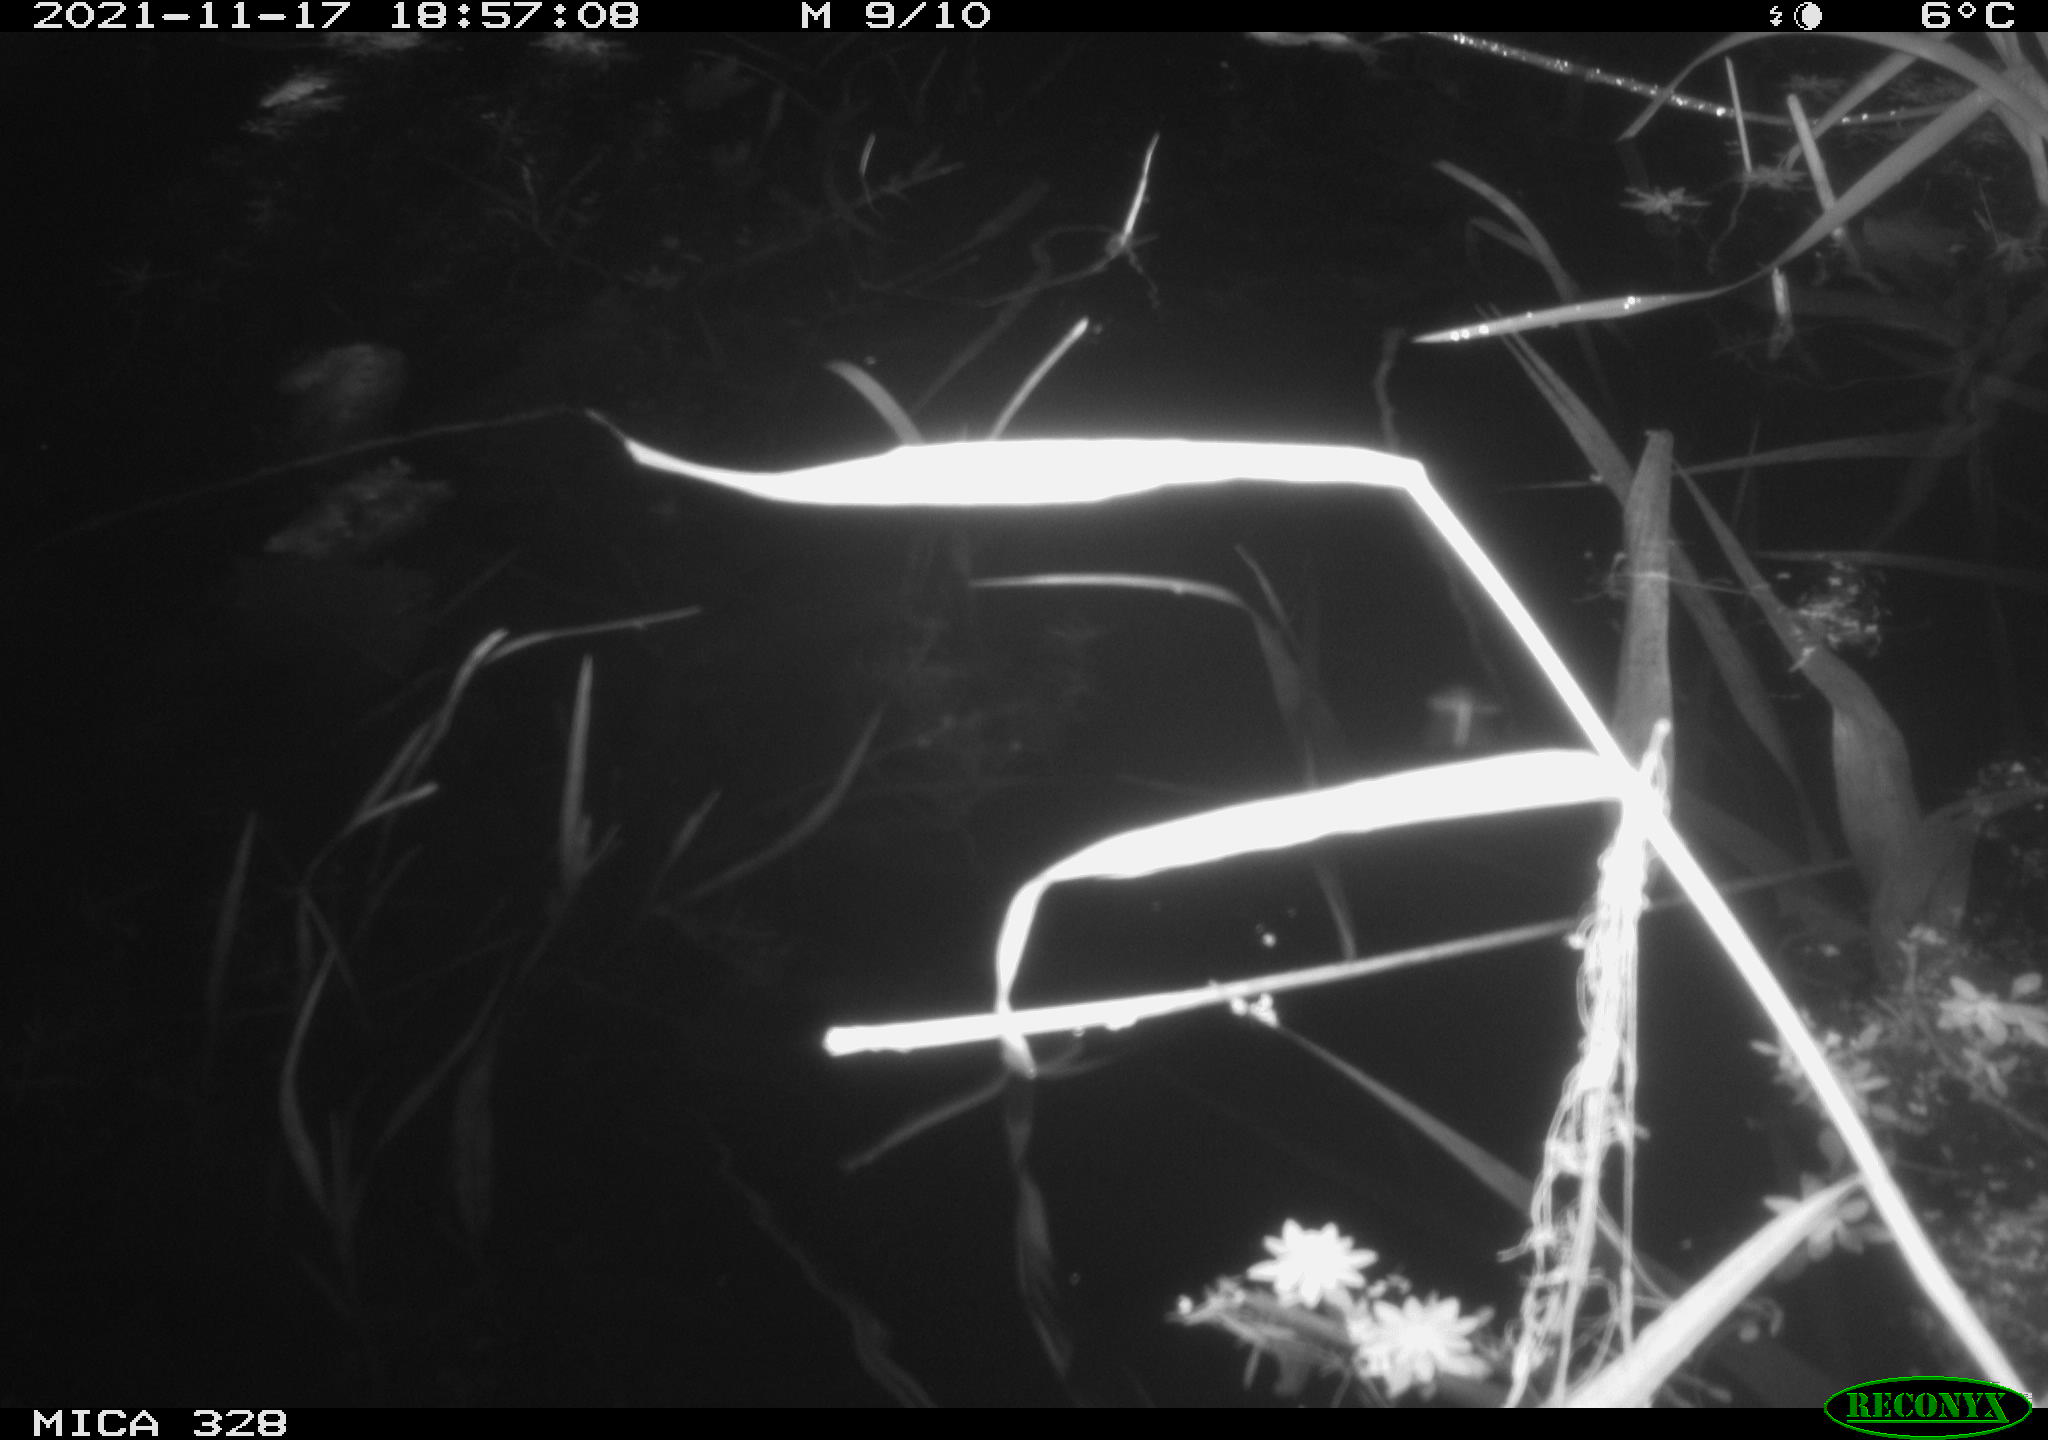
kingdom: Animalia
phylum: Chordata
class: Mammalia
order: Rodentia
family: Cricetidae
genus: Ondatra
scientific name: Ondatra zibethicus
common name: Muskrat
